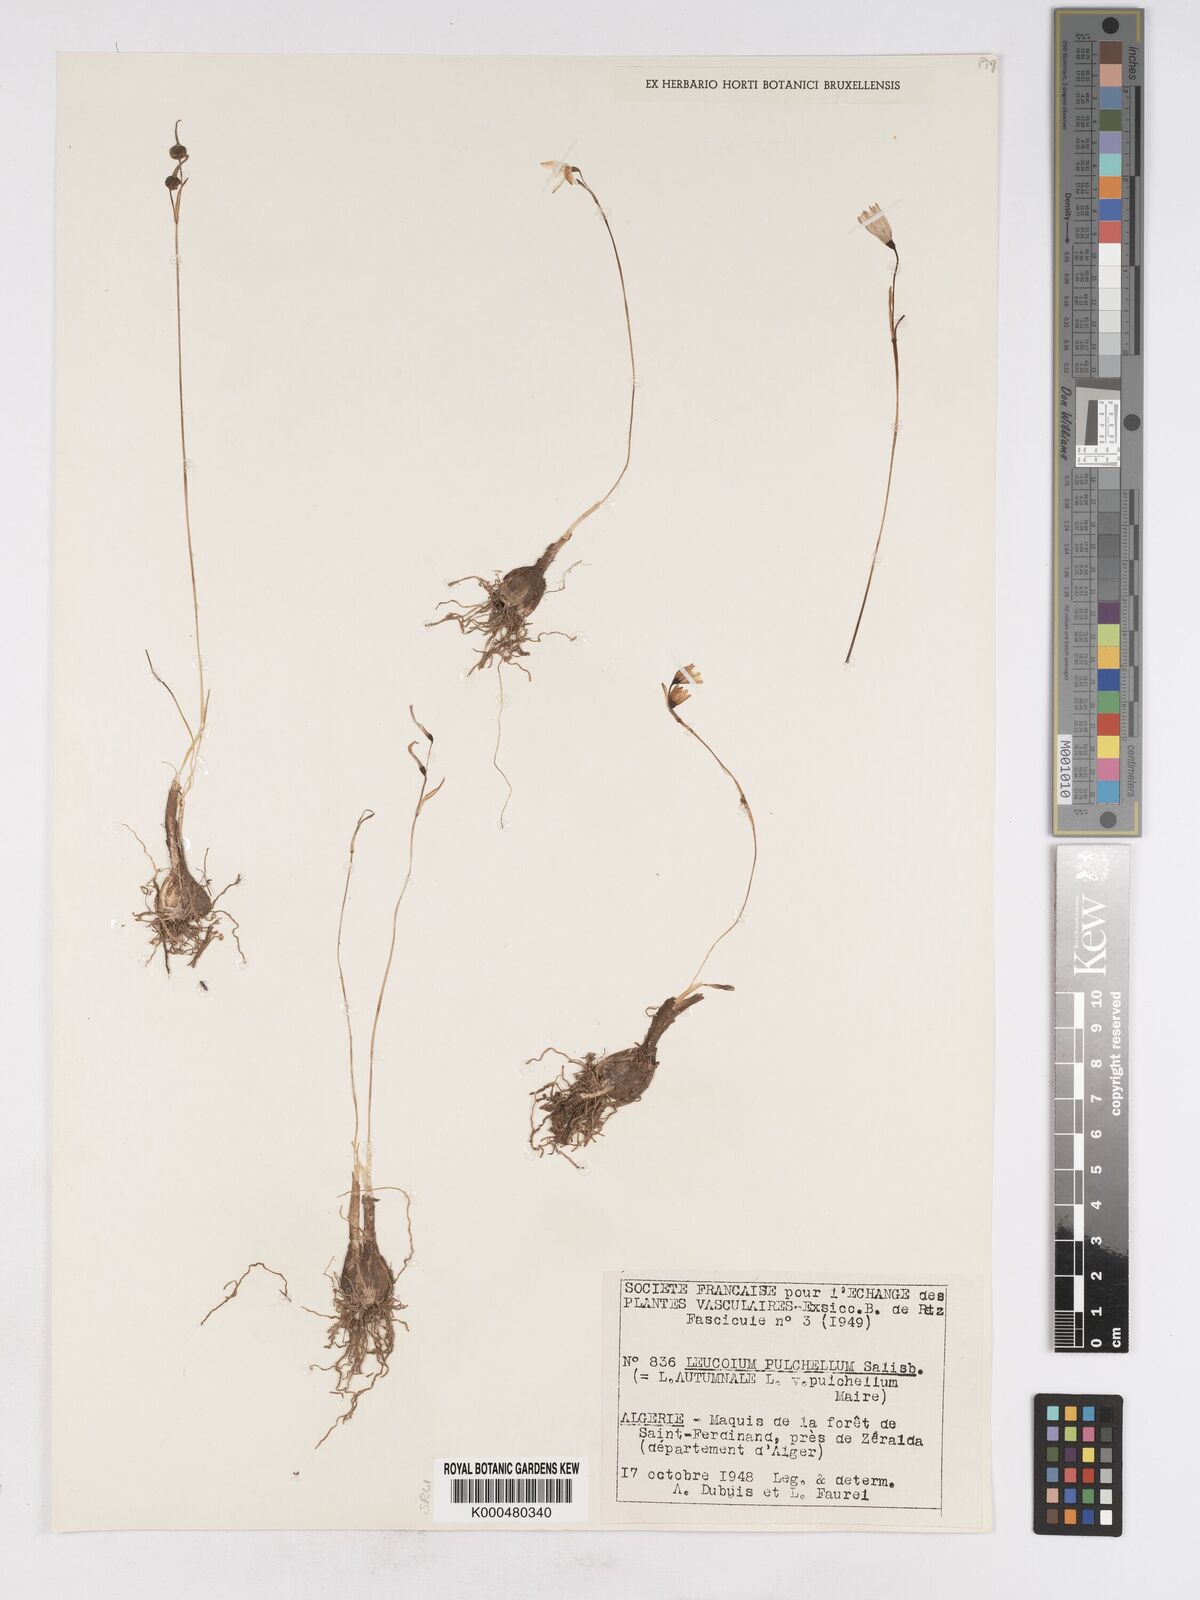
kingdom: Plantae
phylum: Tracheophyta
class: Liliopsida
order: Asparagales
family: Amaryllidaceae
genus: Leucojum
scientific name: Leucojum aestivum
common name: Summer snowflake
